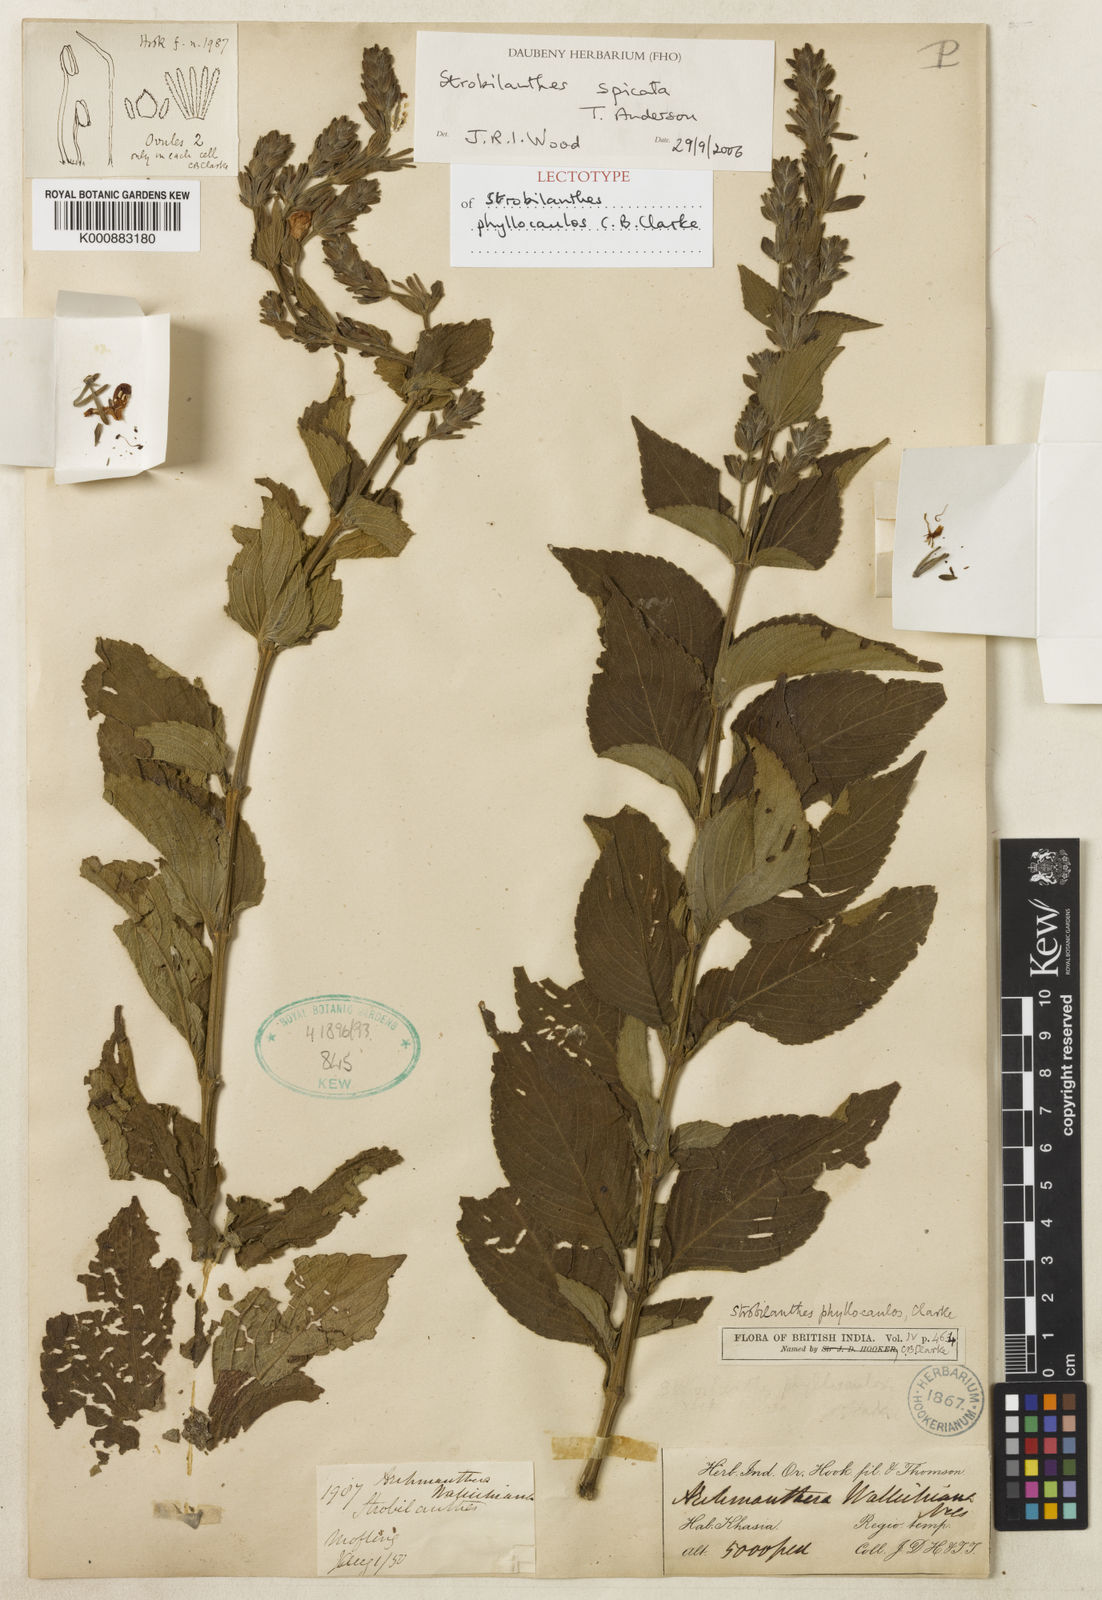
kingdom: Plantae
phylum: Tracheophyta
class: Magnoliopsida
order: Lamiales
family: Acanthaceae
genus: Strobilanthes
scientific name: Strobilanthes spicata
